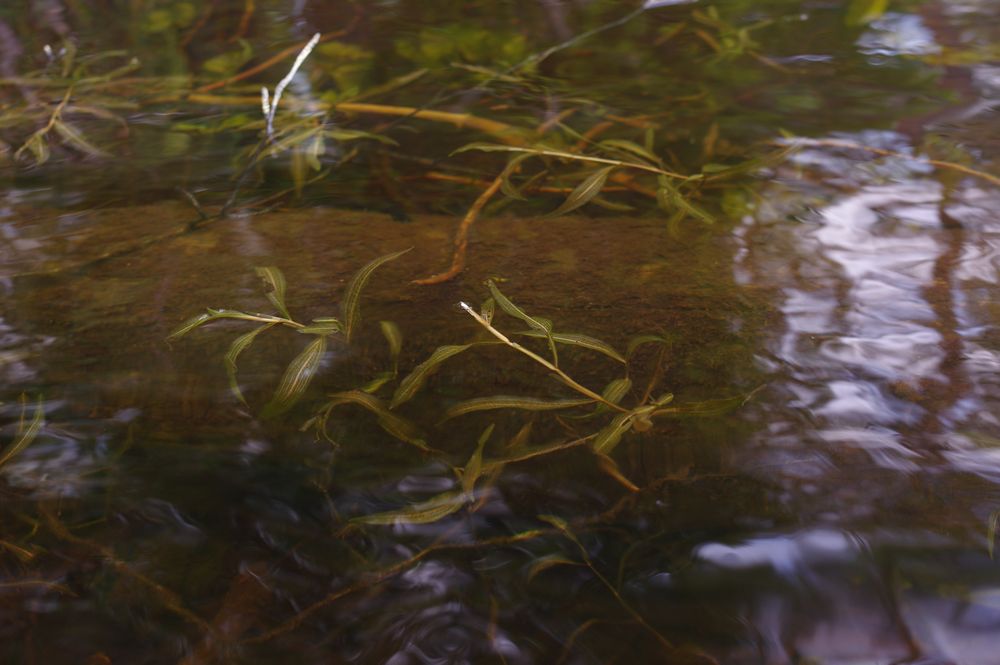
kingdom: Plantae
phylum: Tracheophyta
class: Liliopsida
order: Alismatales
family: Potamogetonaceae
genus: Potamogeton
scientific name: Potamogeton alpinus
